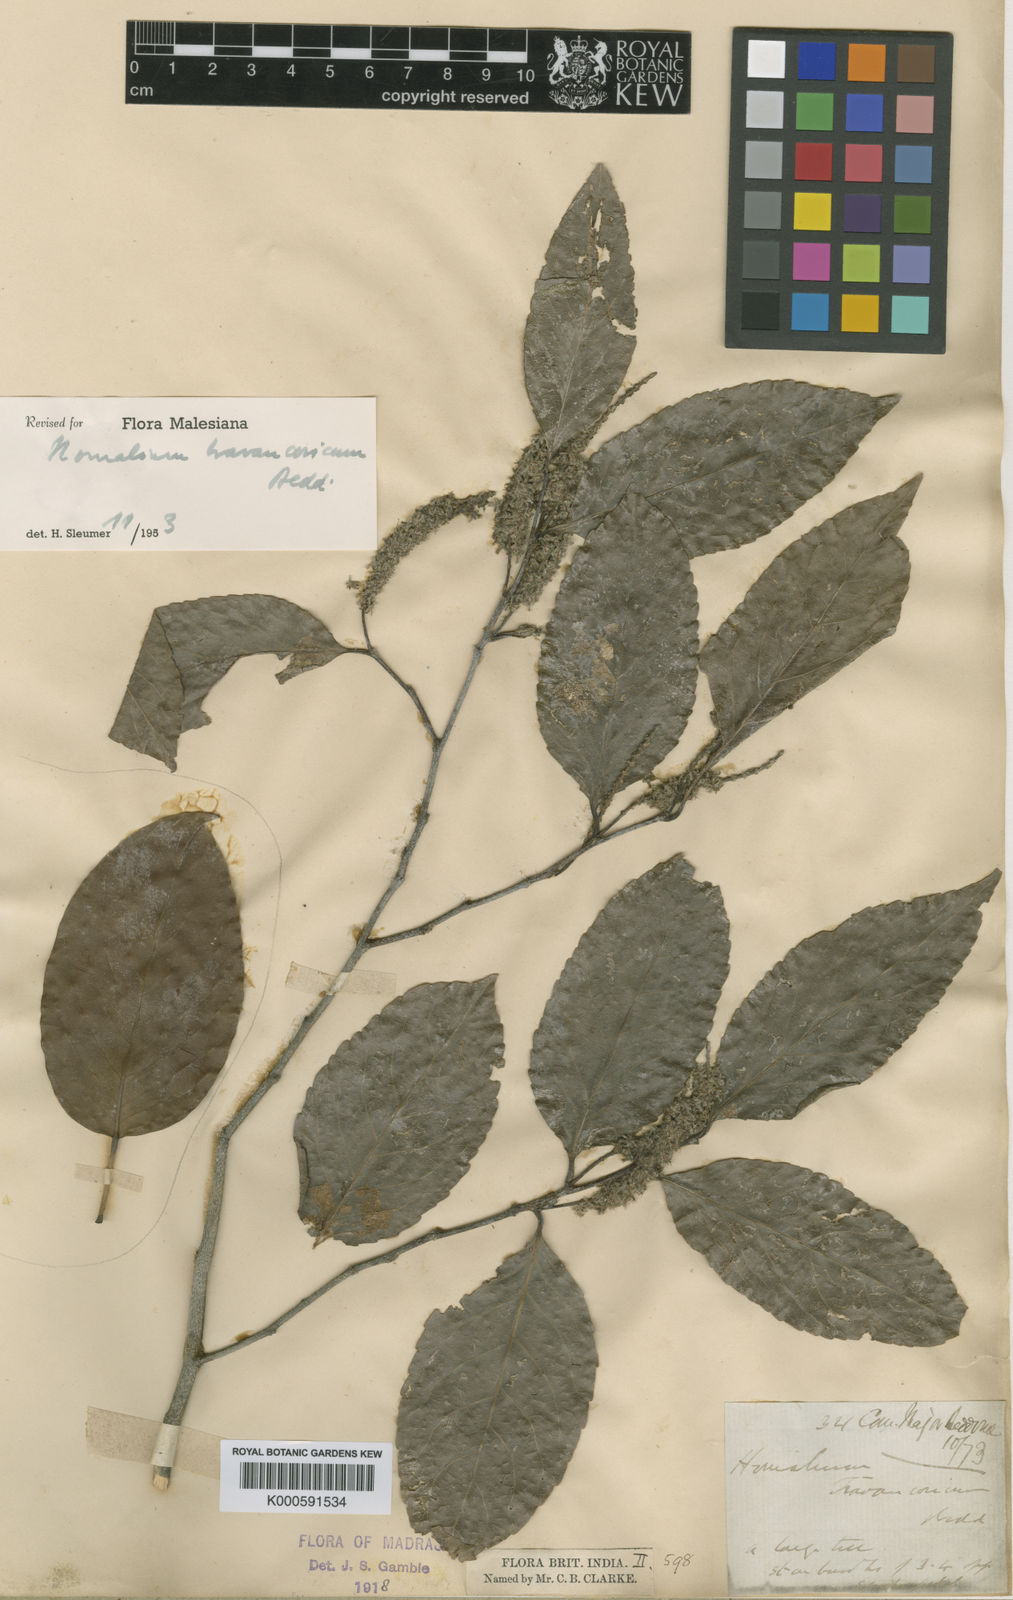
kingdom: Plantae
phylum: Tracheophyta
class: Magnoliopsida
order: Malpighiales
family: Salicaceae
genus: Homalium
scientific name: Homalium travancoricum
